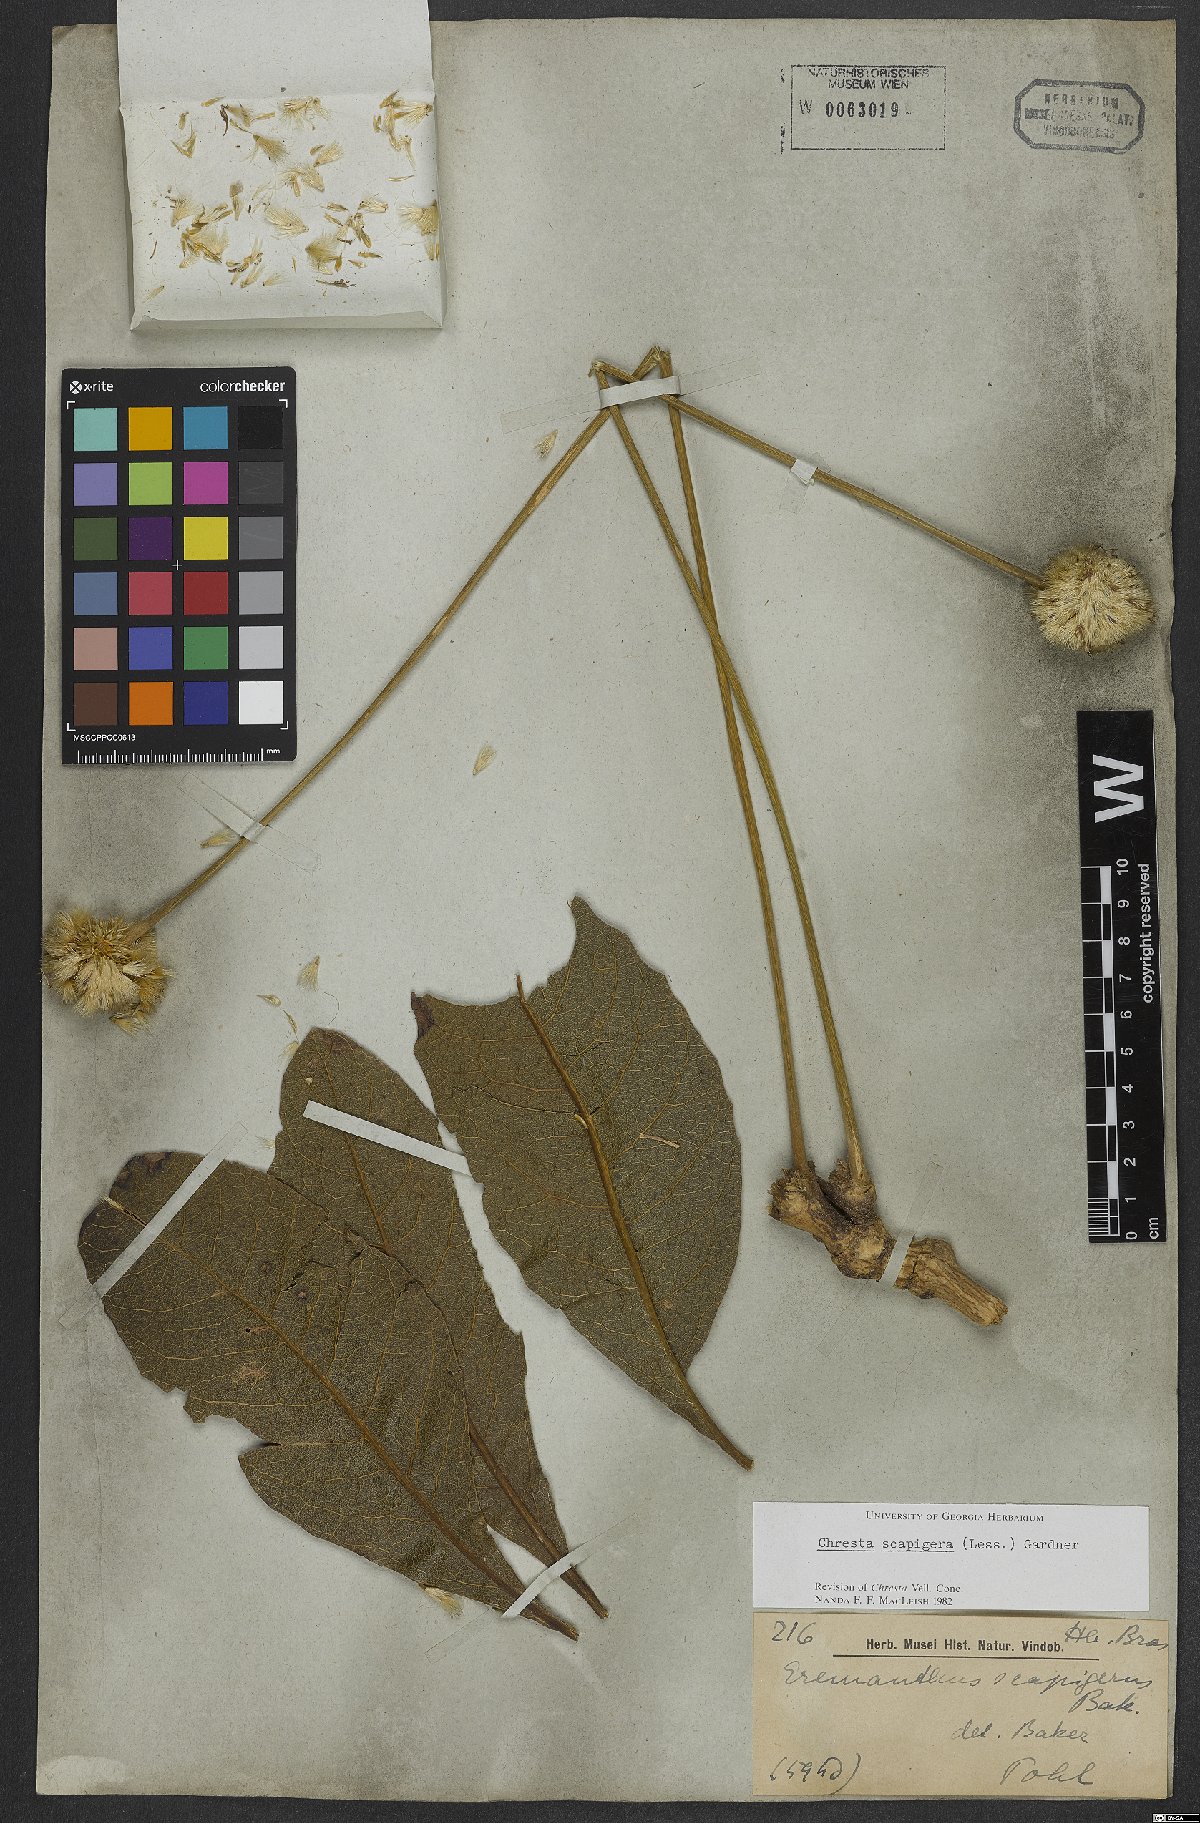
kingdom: Plantae
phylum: Tracheophyta
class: Magnoliopsida
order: Asterales
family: Asteraceae
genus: Chresta
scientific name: Chresta scapigera
